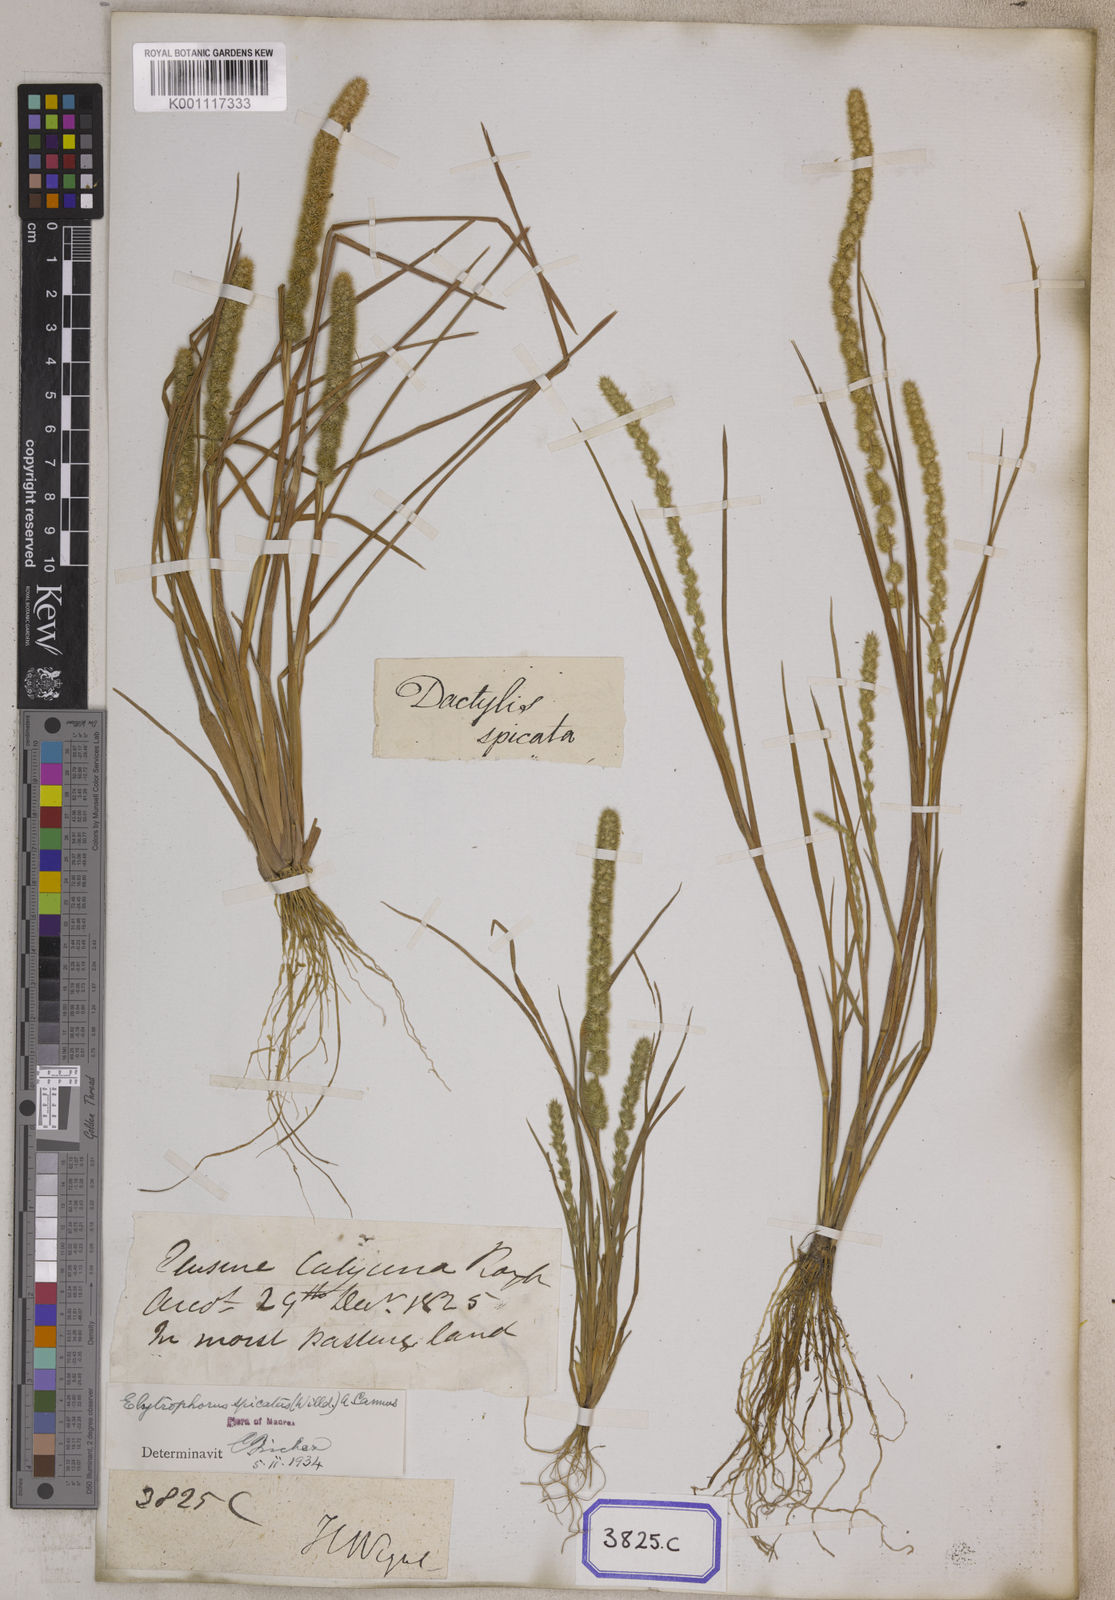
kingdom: Plantae
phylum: Tracheophyta
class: Liliopsida
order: Poales
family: Poaceae
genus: Elytrophorus
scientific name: Elytrophorus spicatus
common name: Spike grass
